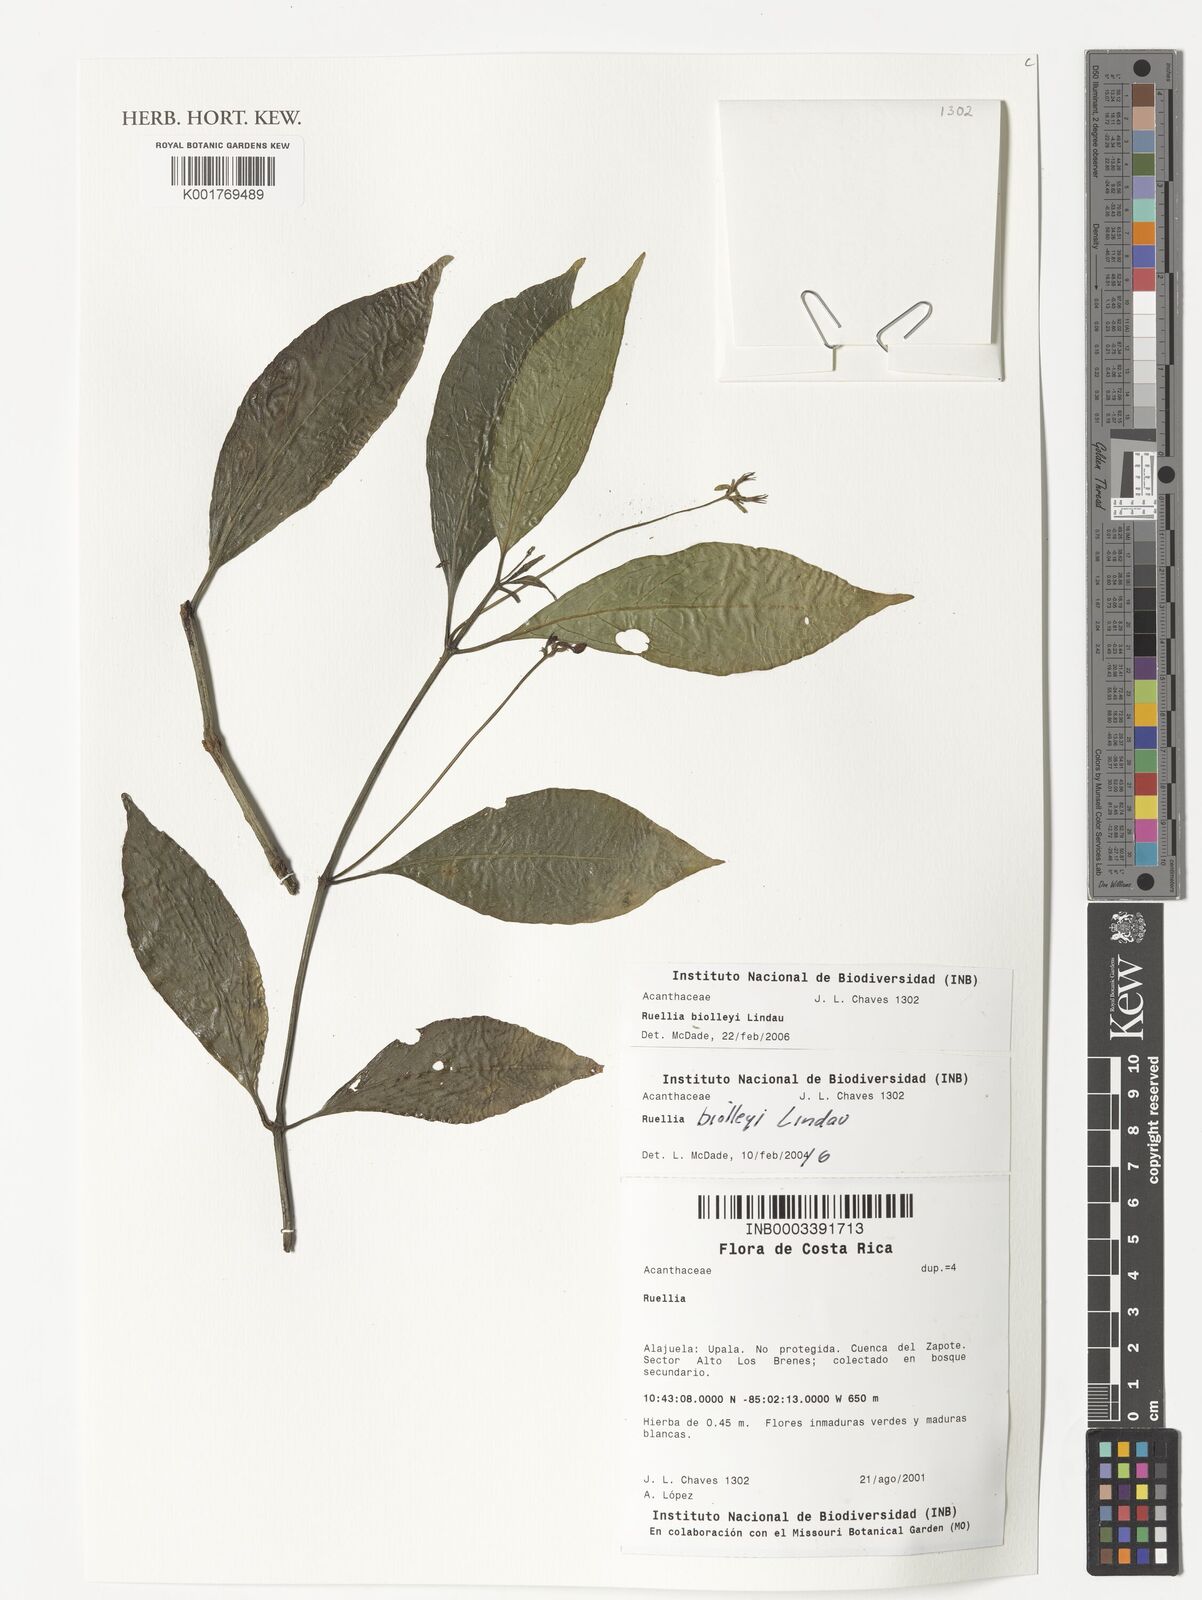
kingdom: Plantae
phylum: Tracheophyta
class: Magnoliopsida
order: Lamiales
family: Acanthaceae
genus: Ruellia
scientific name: Ruellia biolleyi
